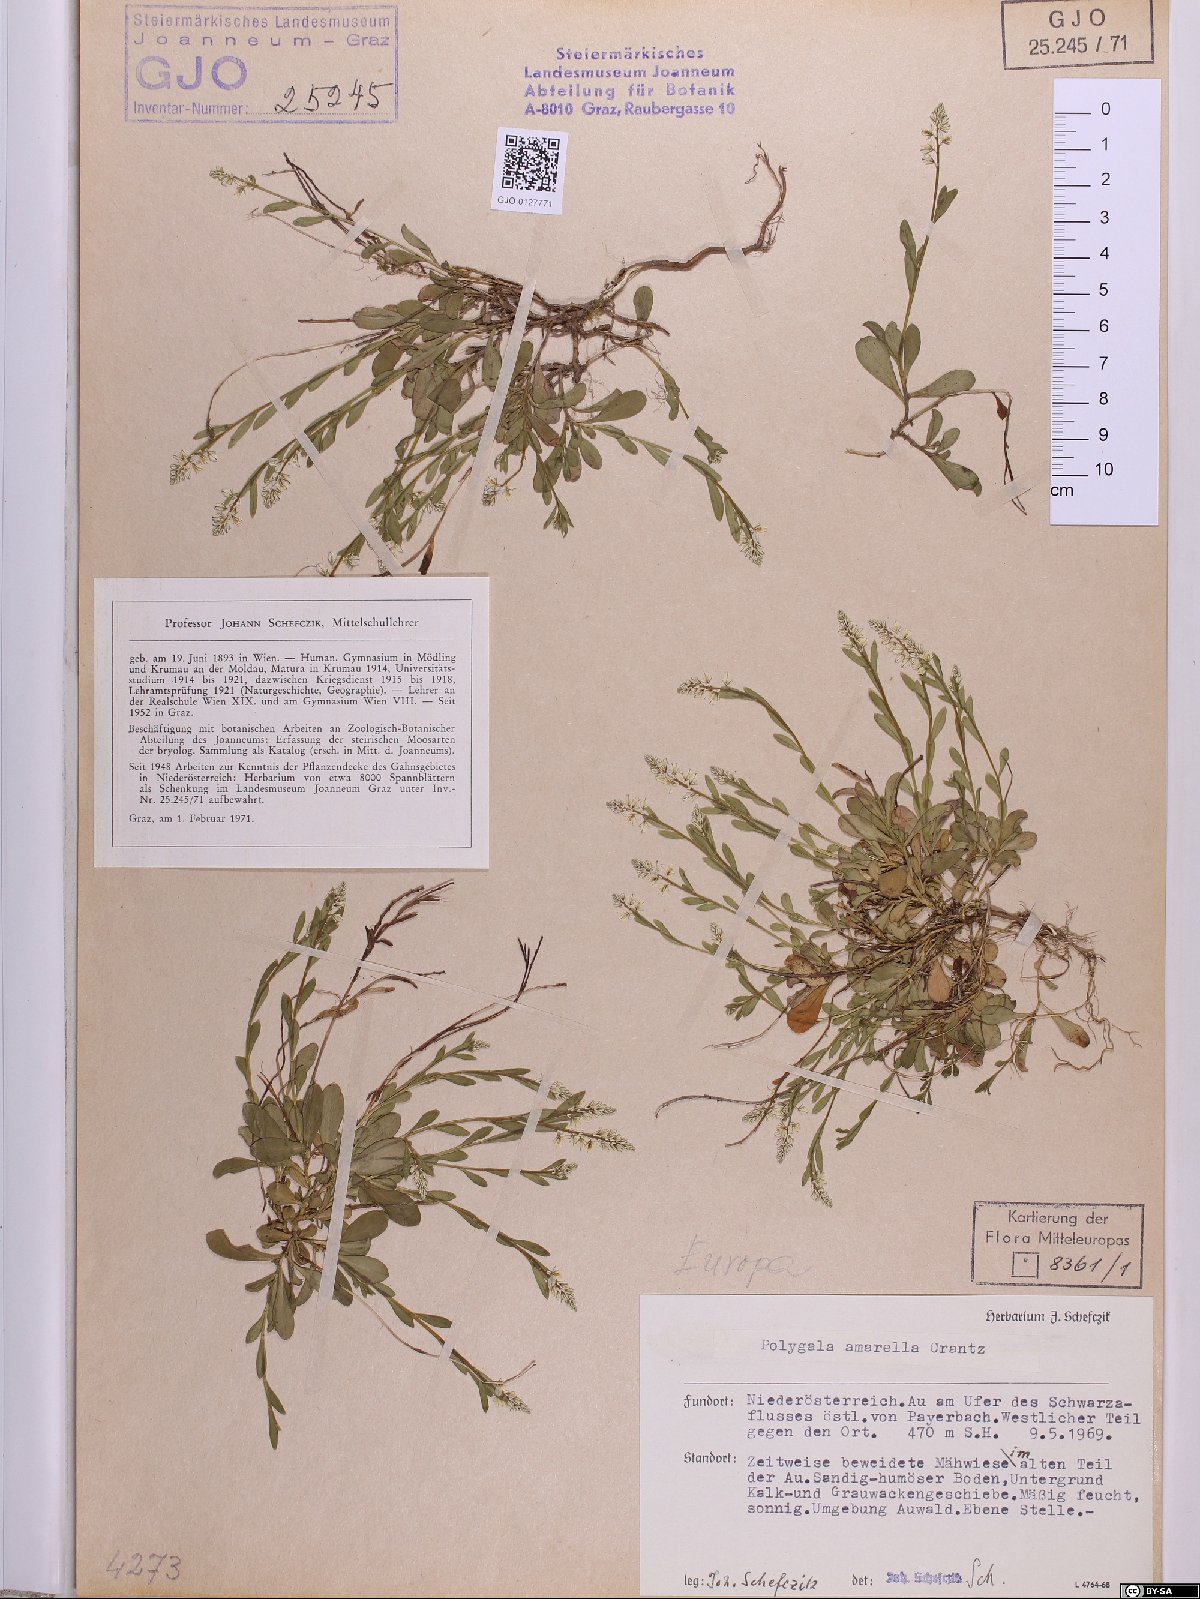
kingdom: Plantae
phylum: Tracheophyta
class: Magnoliopsida
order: Fabales
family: Polygalaceae
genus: Polygala
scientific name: Polygala amarella
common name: Dwarf milkwort
